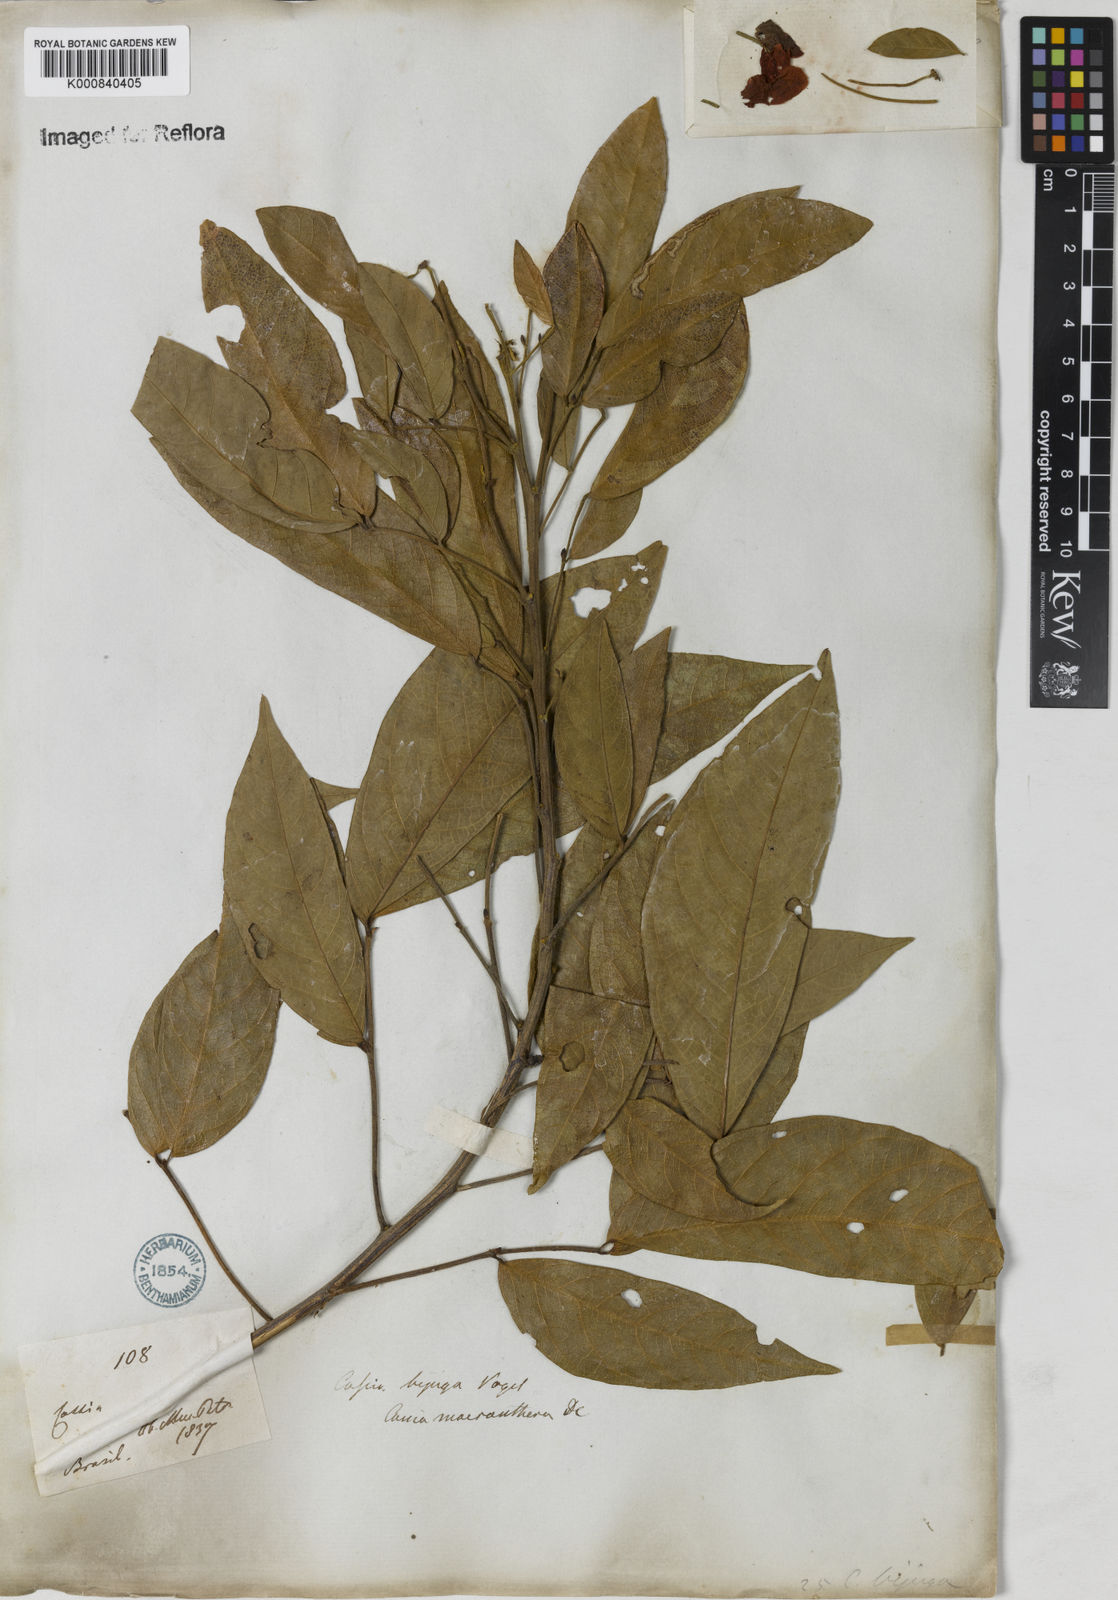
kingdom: Plantae
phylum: Tracheophyta
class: Magnoliopsida
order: Fabales
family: Fabaceae
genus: Senna
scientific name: Senna macranthera
